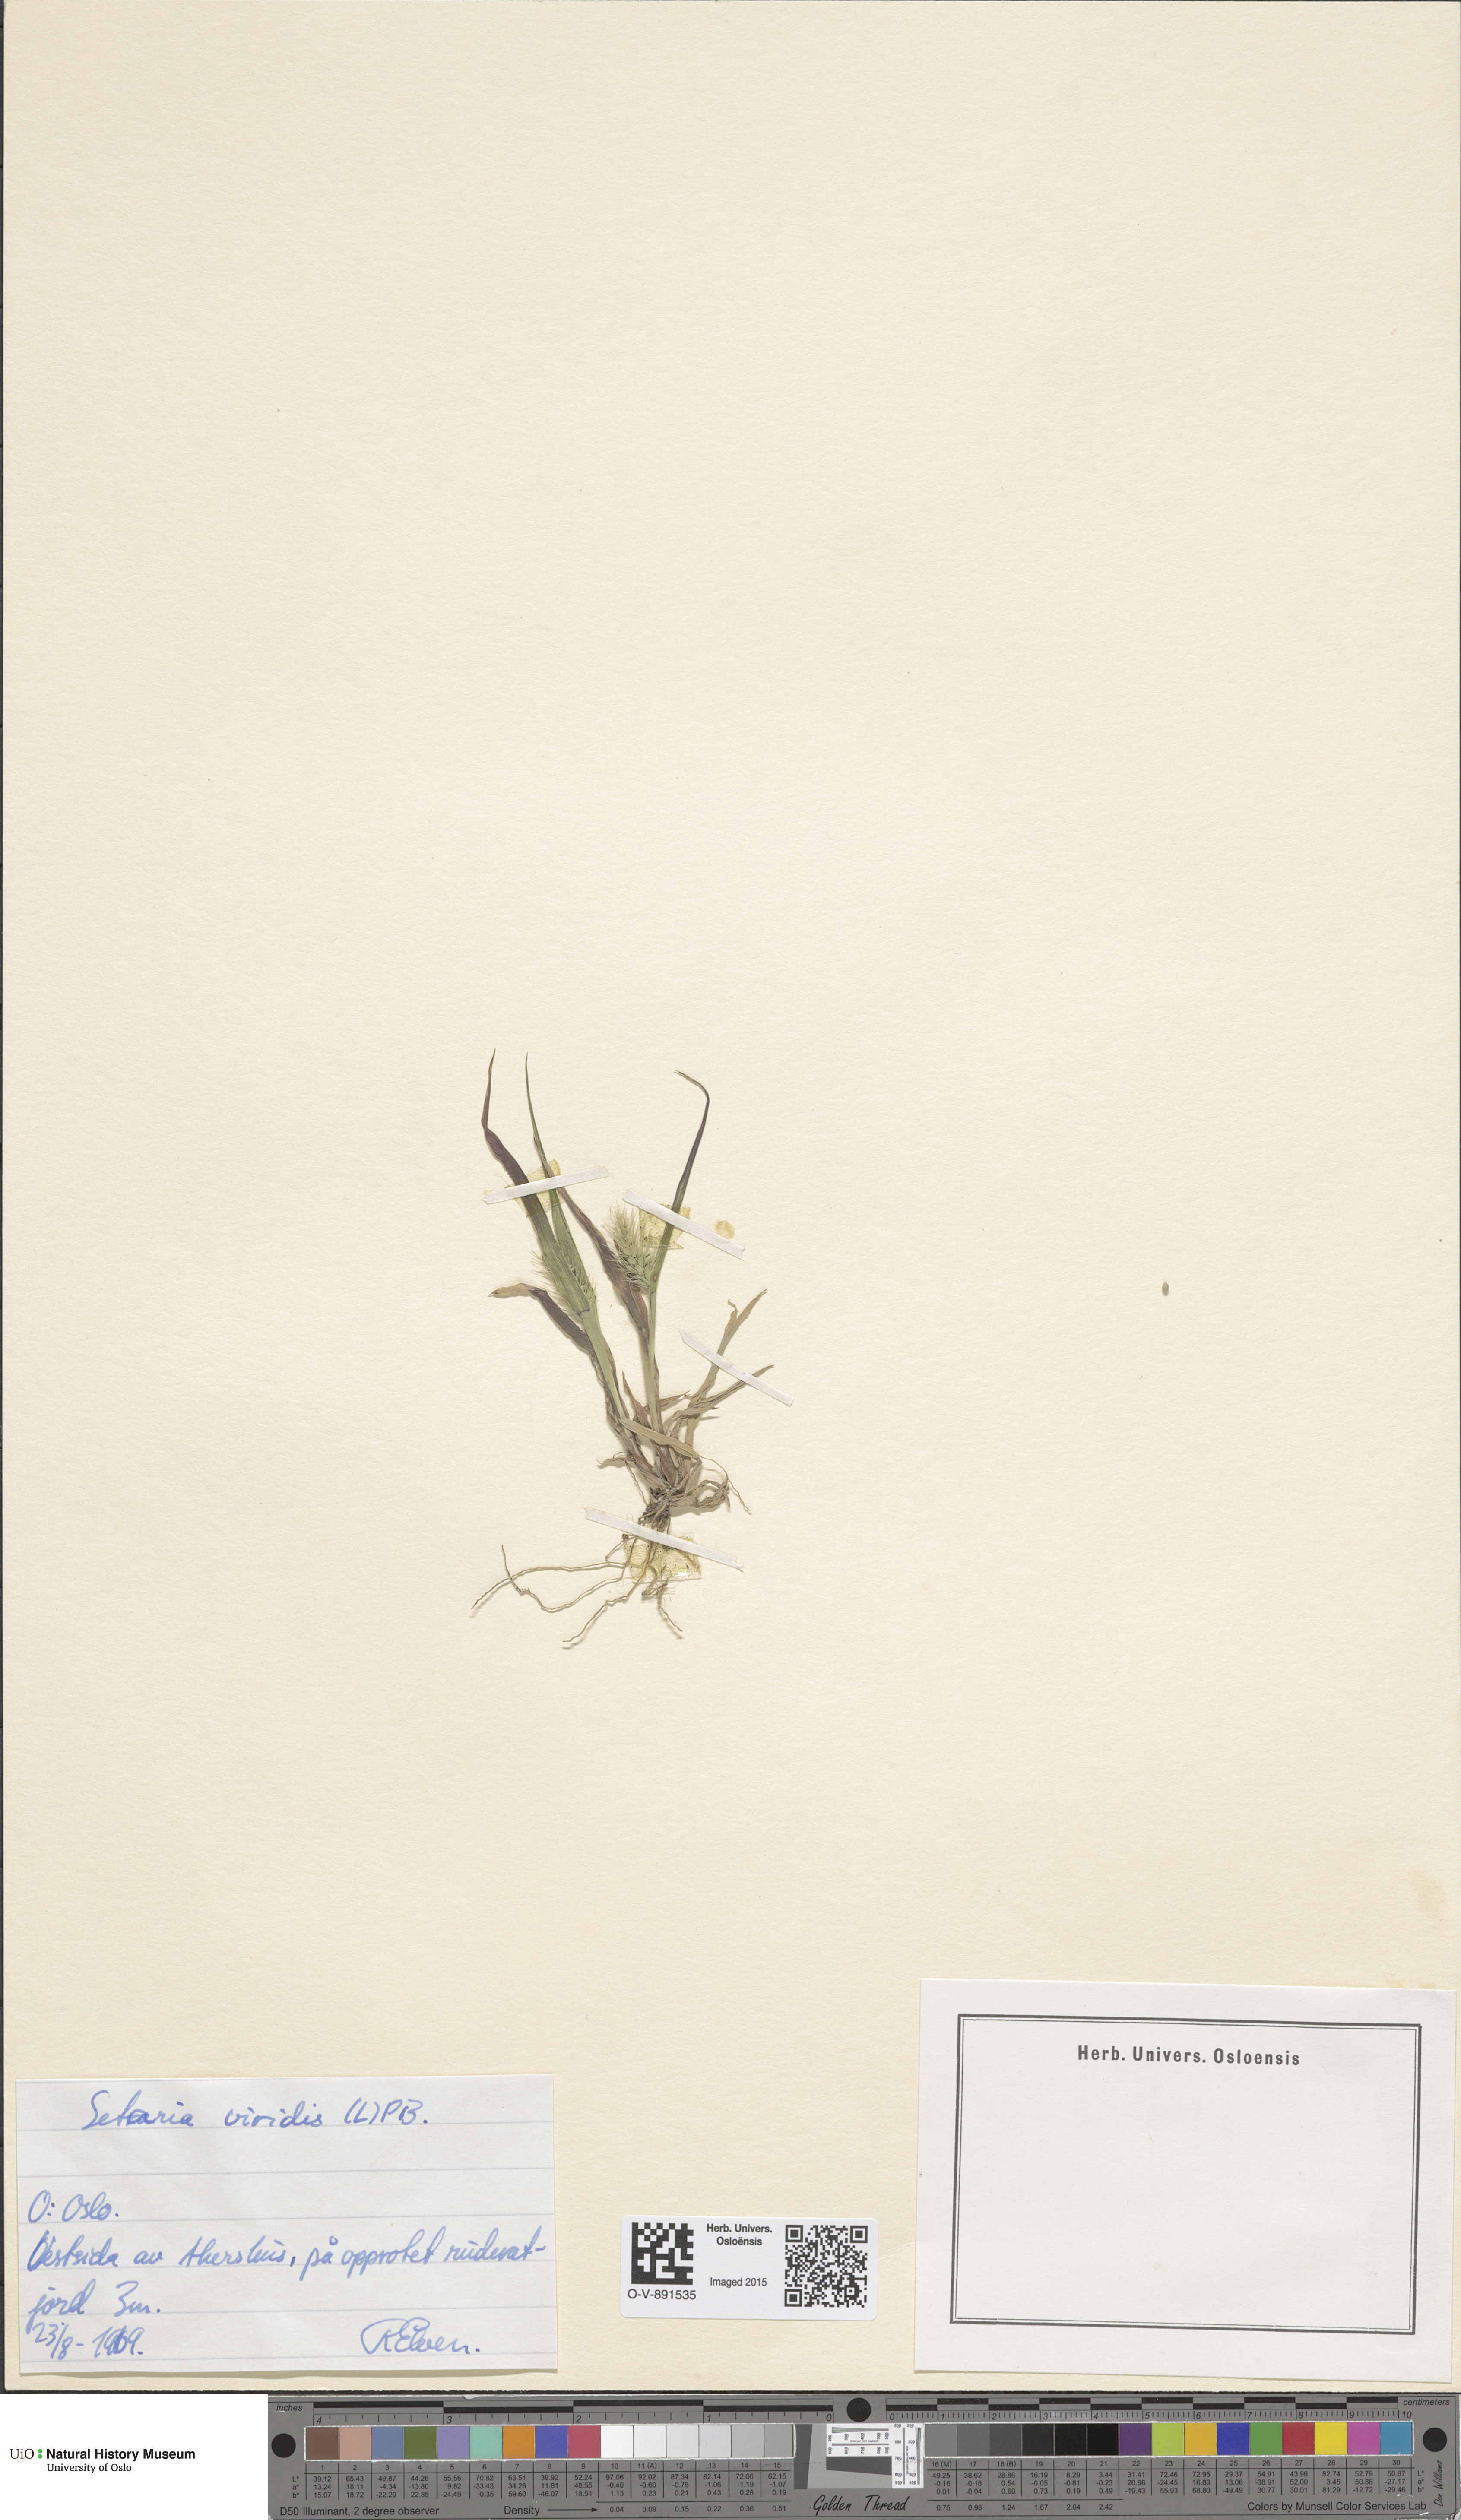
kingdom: Plantae
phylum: Tracheophyta
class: Liliopsida
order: Poales
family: Poaceae
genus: Setaria
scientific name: Setaria viridis
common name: Green bristlegrass
